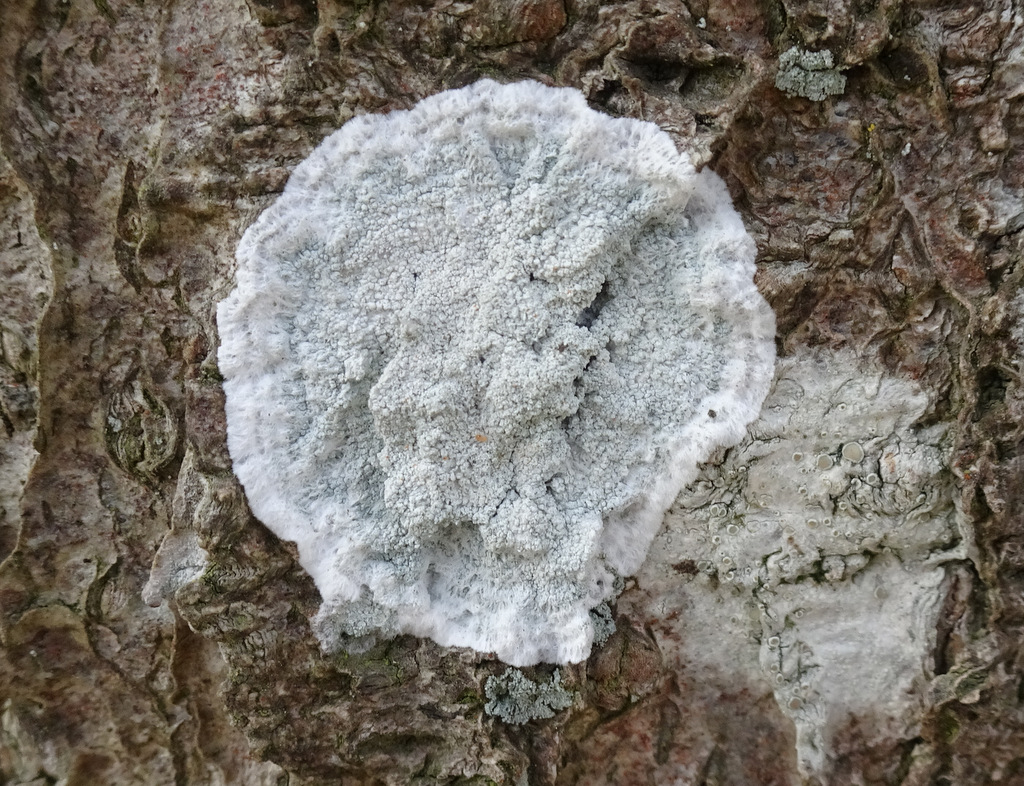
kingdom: Fungi
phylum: Ascomycota
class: Lecanoromycetes
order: Lecanorales
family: Haematommataceae
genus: Haematomma
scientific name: Haematomma ochroleucum
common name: gul trådkantlav
